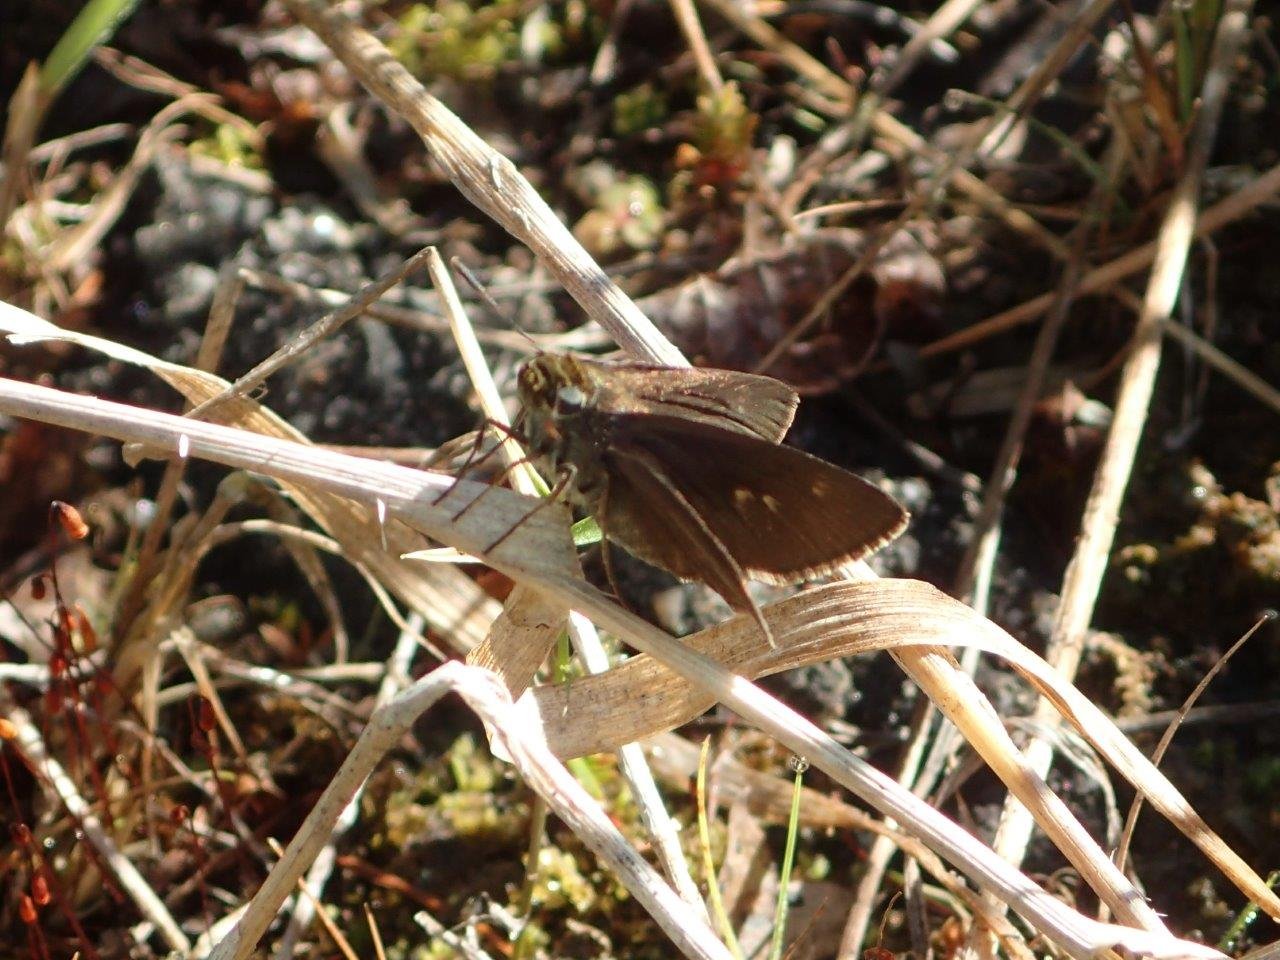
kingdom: Animalia
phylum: Arthropoda
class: Insecta
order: Lepidoptera
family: Hesperiidae
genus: Euphyes
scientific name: Euphyes vestris
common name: Dun Skipper
